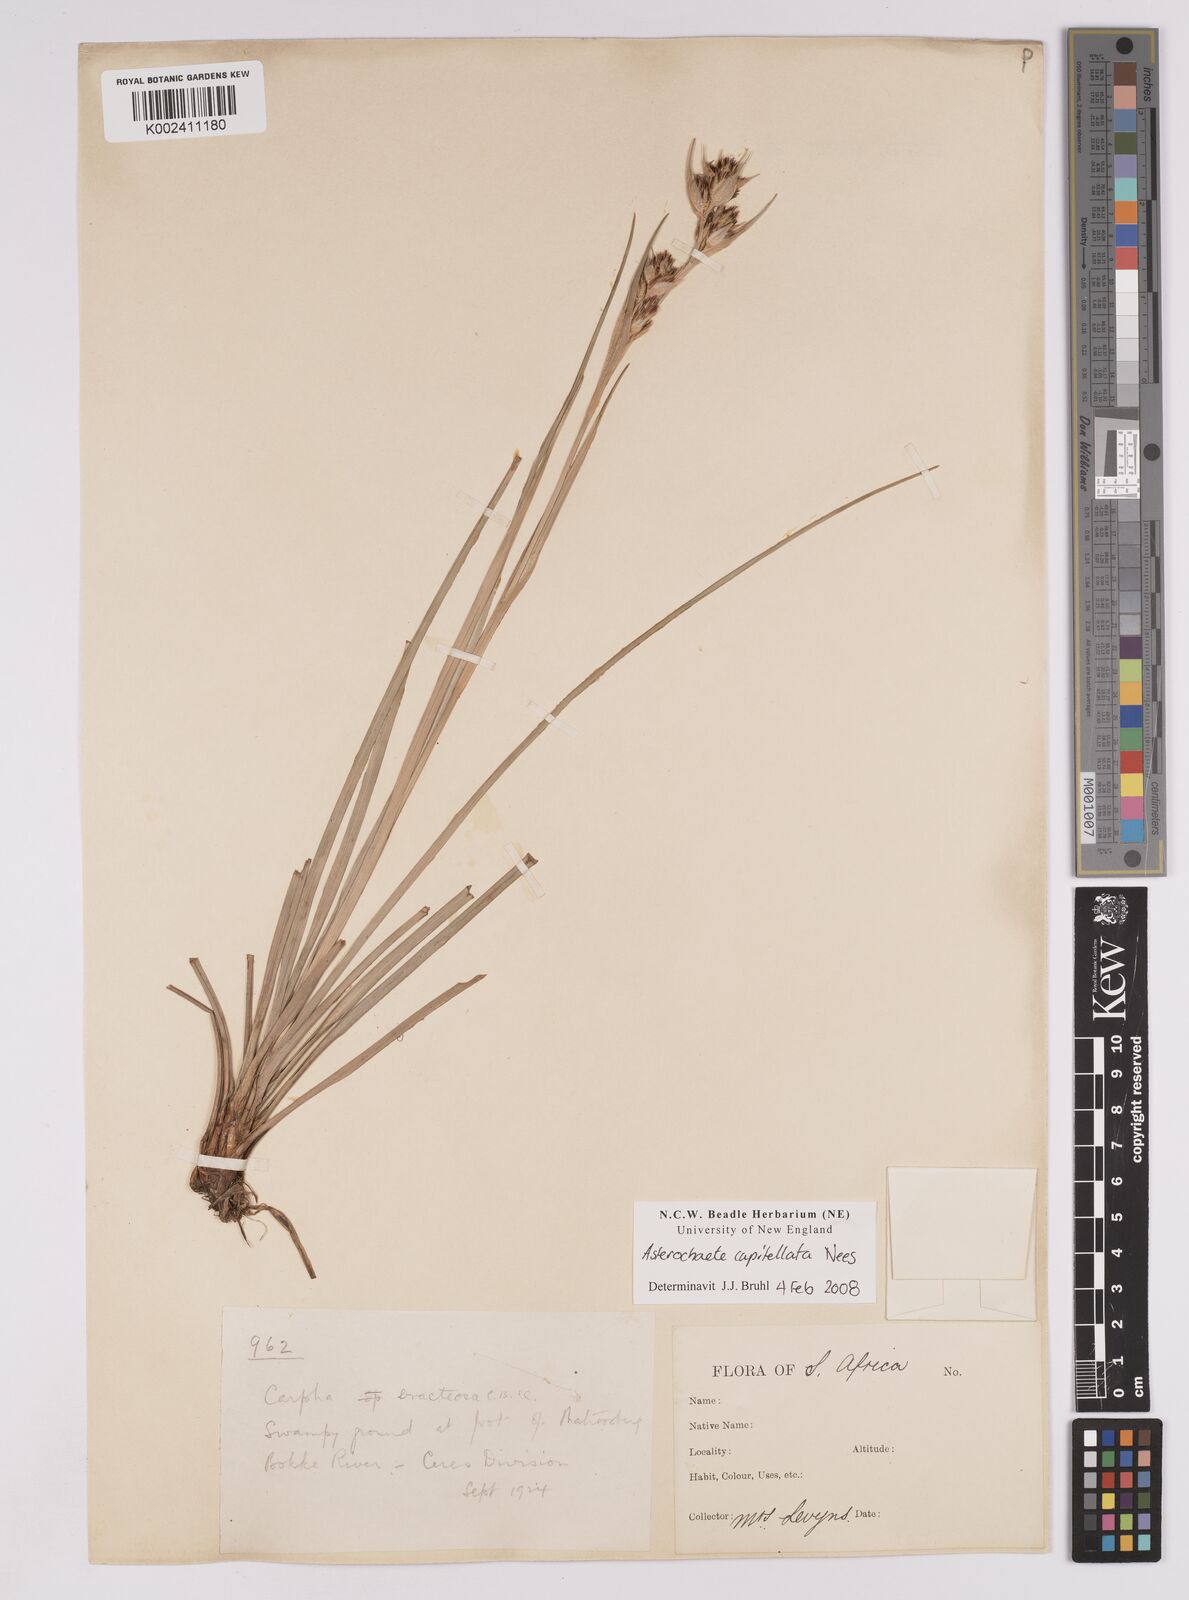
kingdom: Plantae
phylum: Tracheophyta
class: Liliopsida
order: Poales
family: Cyperaceae
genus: Carpha
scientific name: Carpha capitellata
